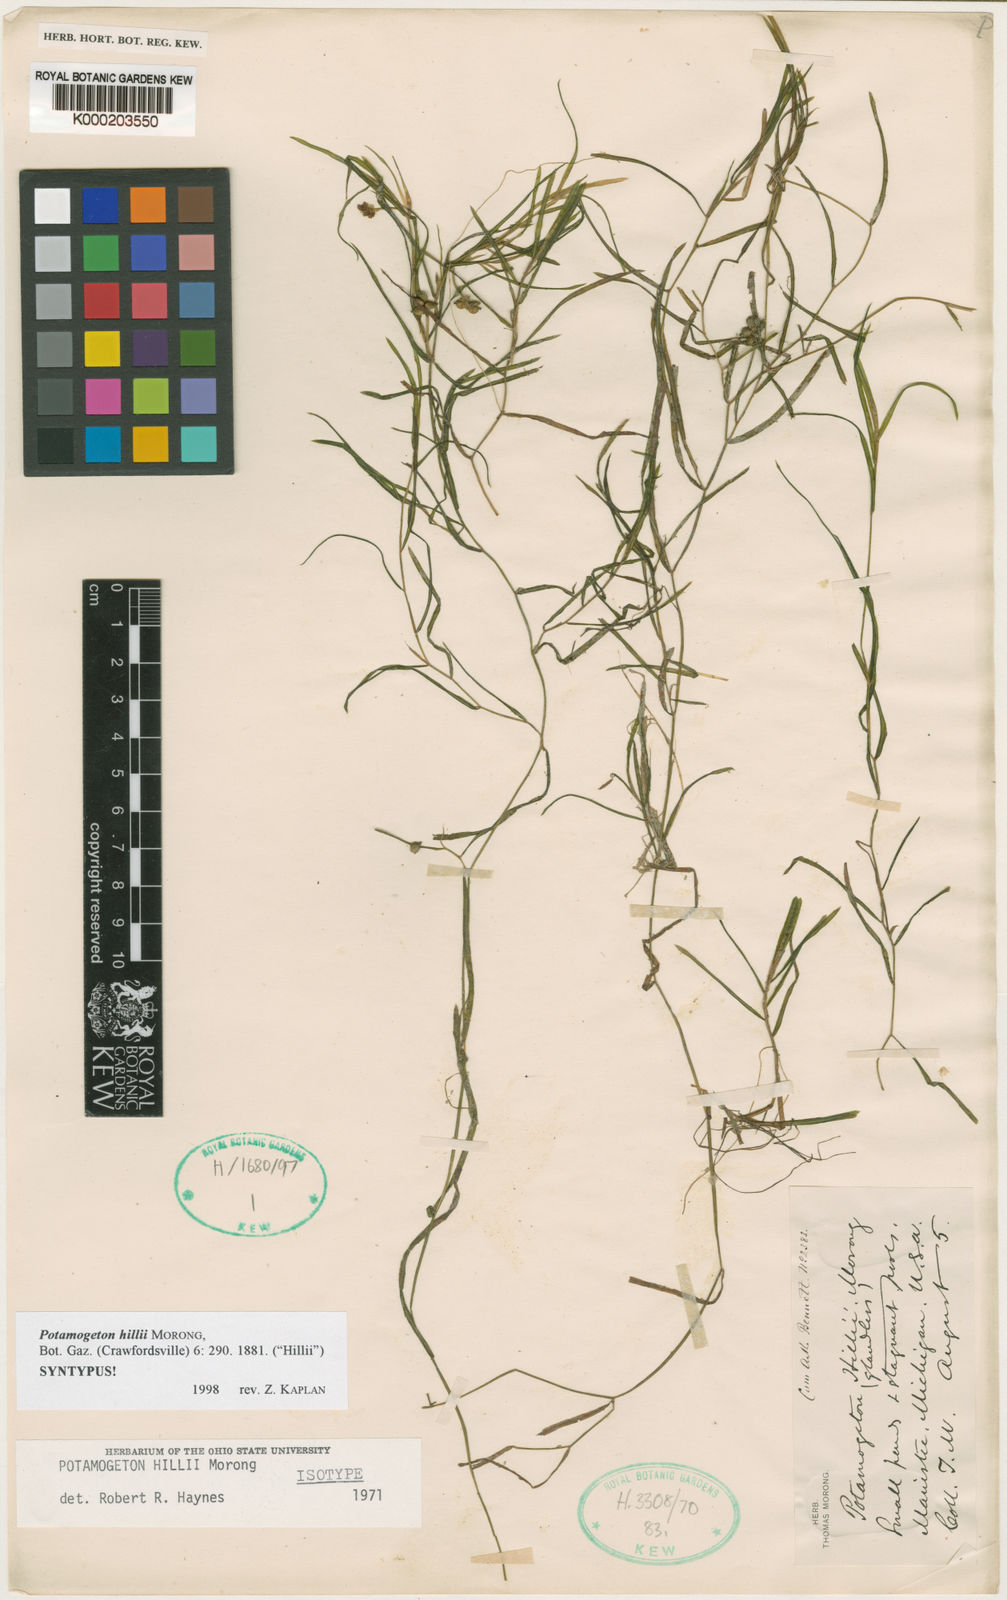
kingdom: Plantae
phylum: Tracheophyta
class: Liliopsida
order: Alismatales
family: Potamogetonaceae
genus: Potamogeton
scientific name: Potamogeton hillii
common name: Hill's pondweed
